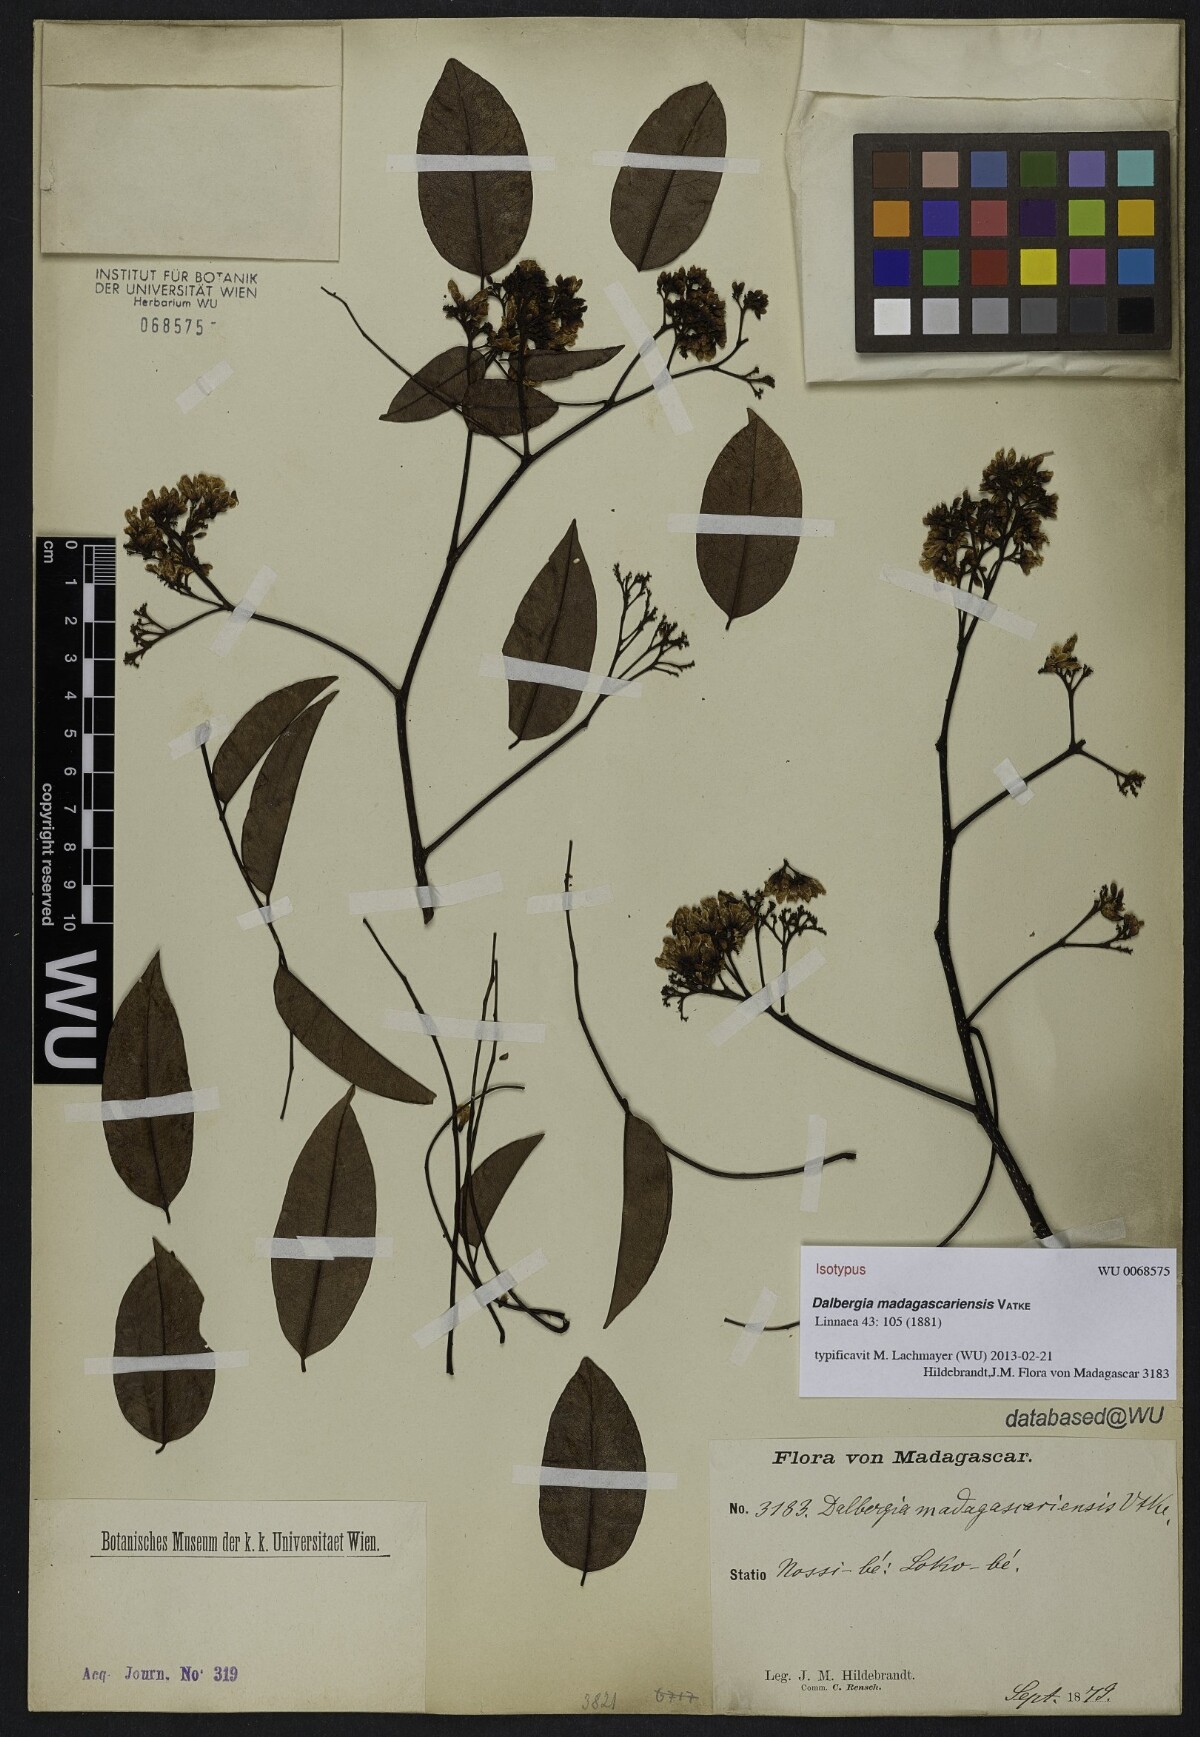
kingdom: Plantae
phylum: Tracheophyta
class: Magnoliopsida
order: Fabales
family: Fabaceae
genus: Dalbergia
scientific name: Dalbergia madagascariensis
